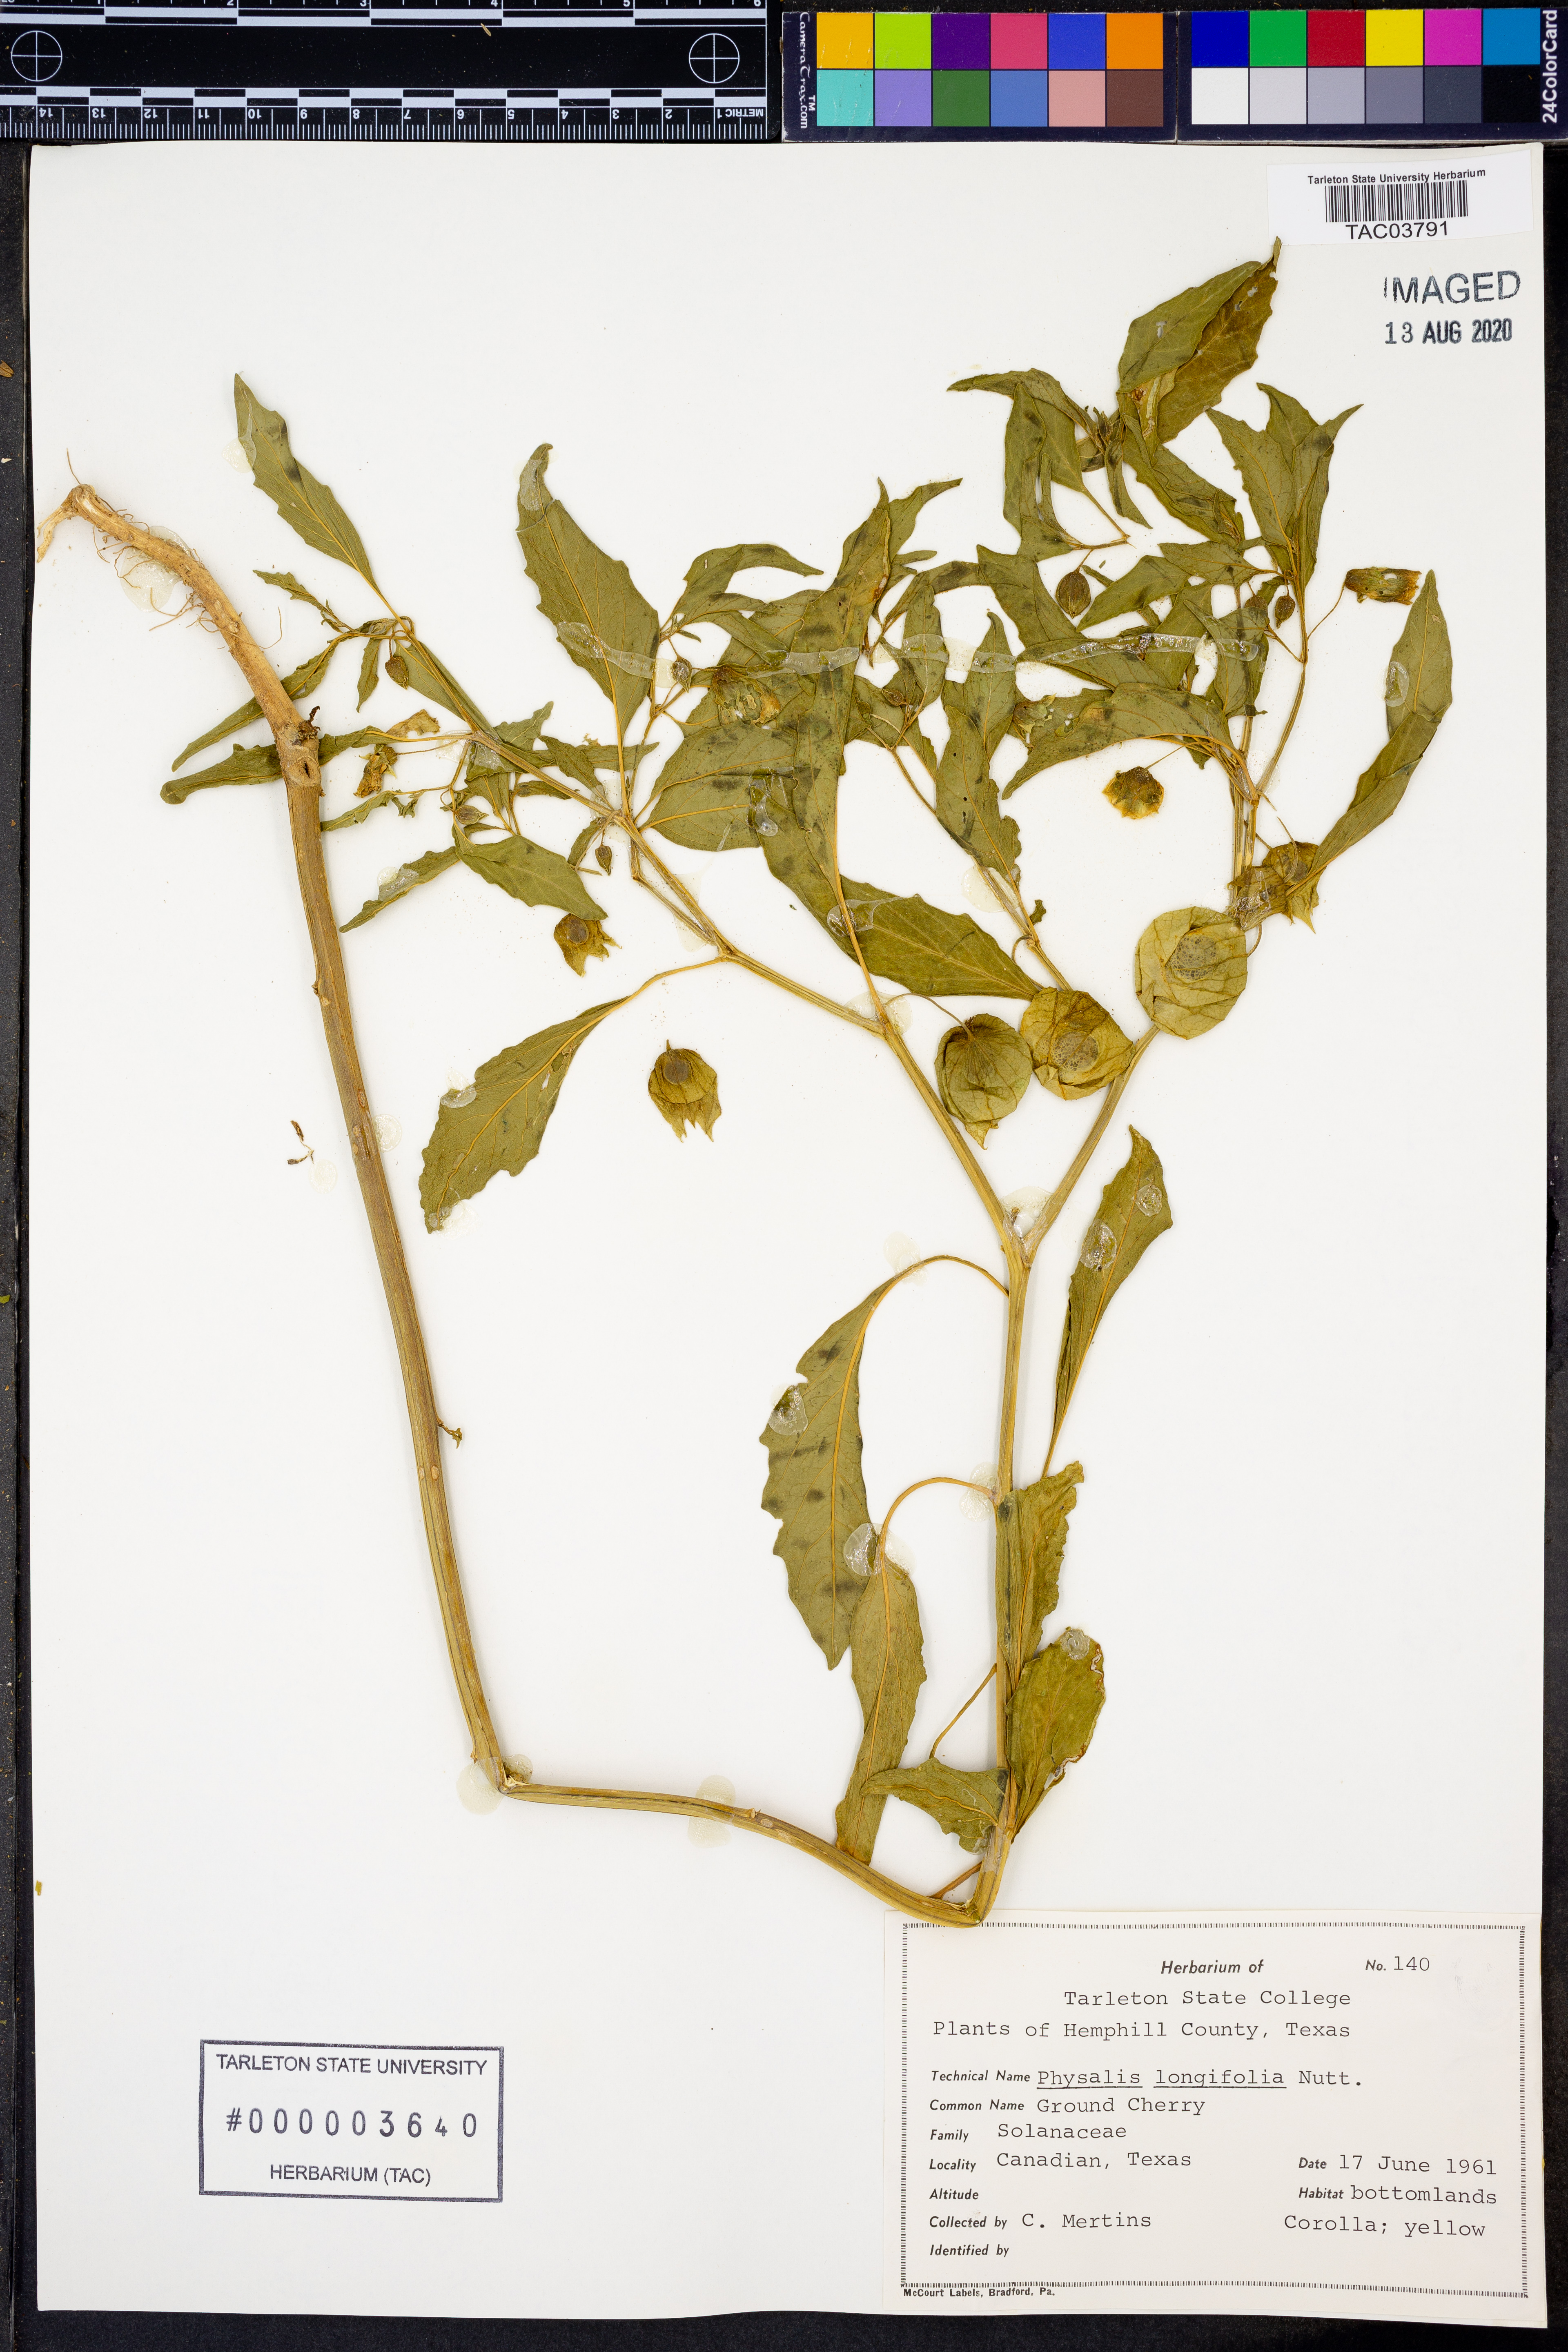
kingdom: Plantae
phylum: Tracheophyta
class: Magnoliopsida
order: Solanales
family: Solanaceae
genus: Physalis
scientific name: Physalis longifolia
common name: Common ground-cherry
